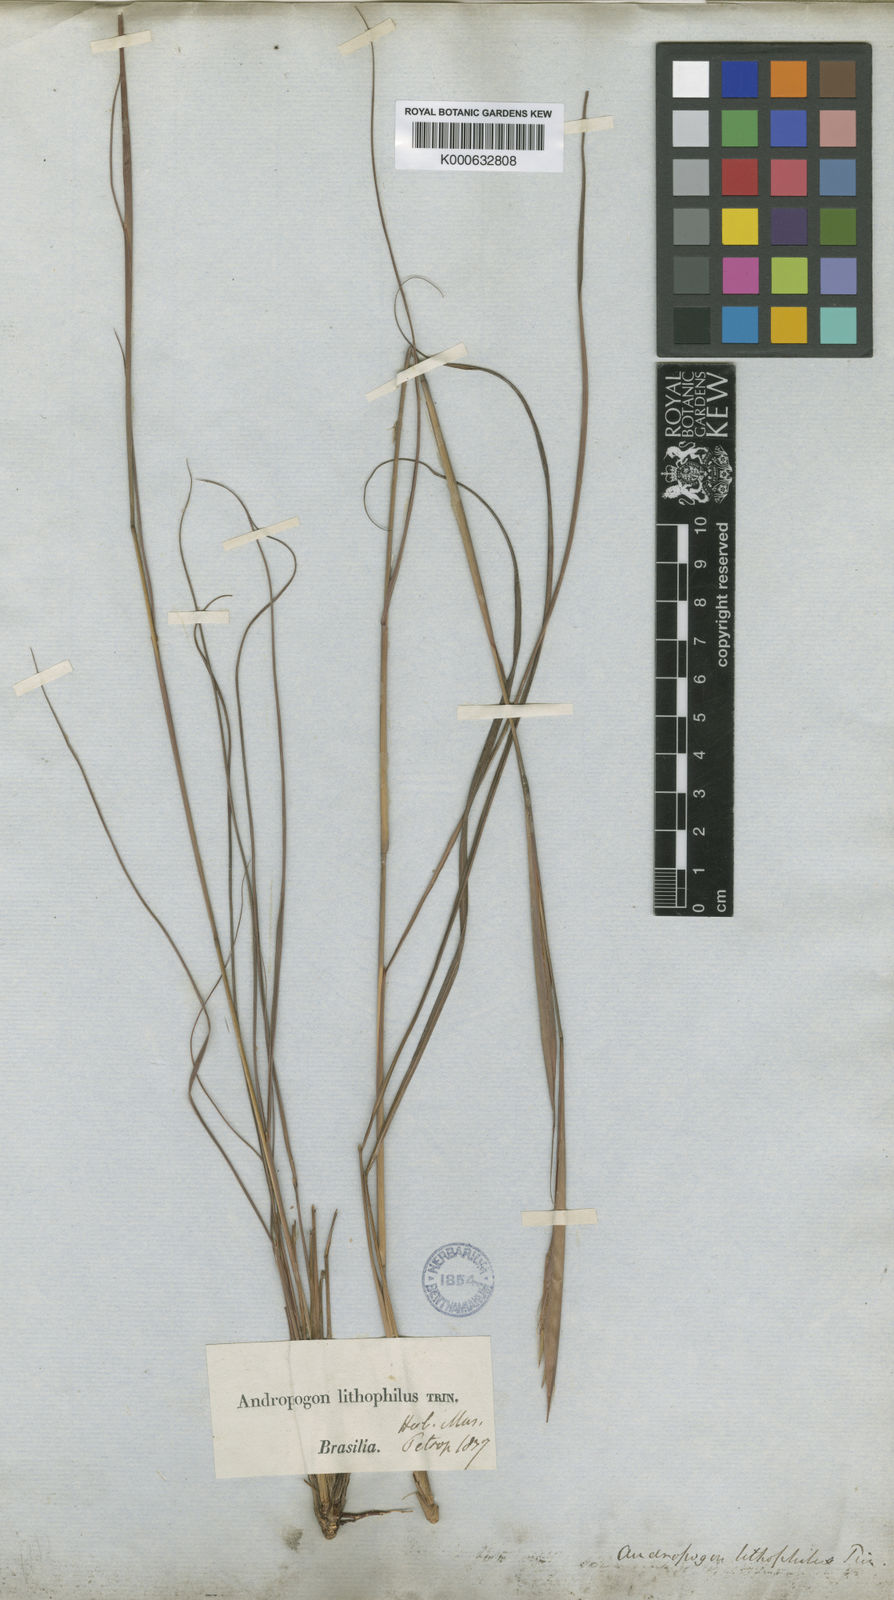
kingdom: Plantae
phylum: Tracheophyta
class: Liliopsida
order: Poales
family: Poaceae
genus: Elymandra
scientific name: Elymandra lithophila
